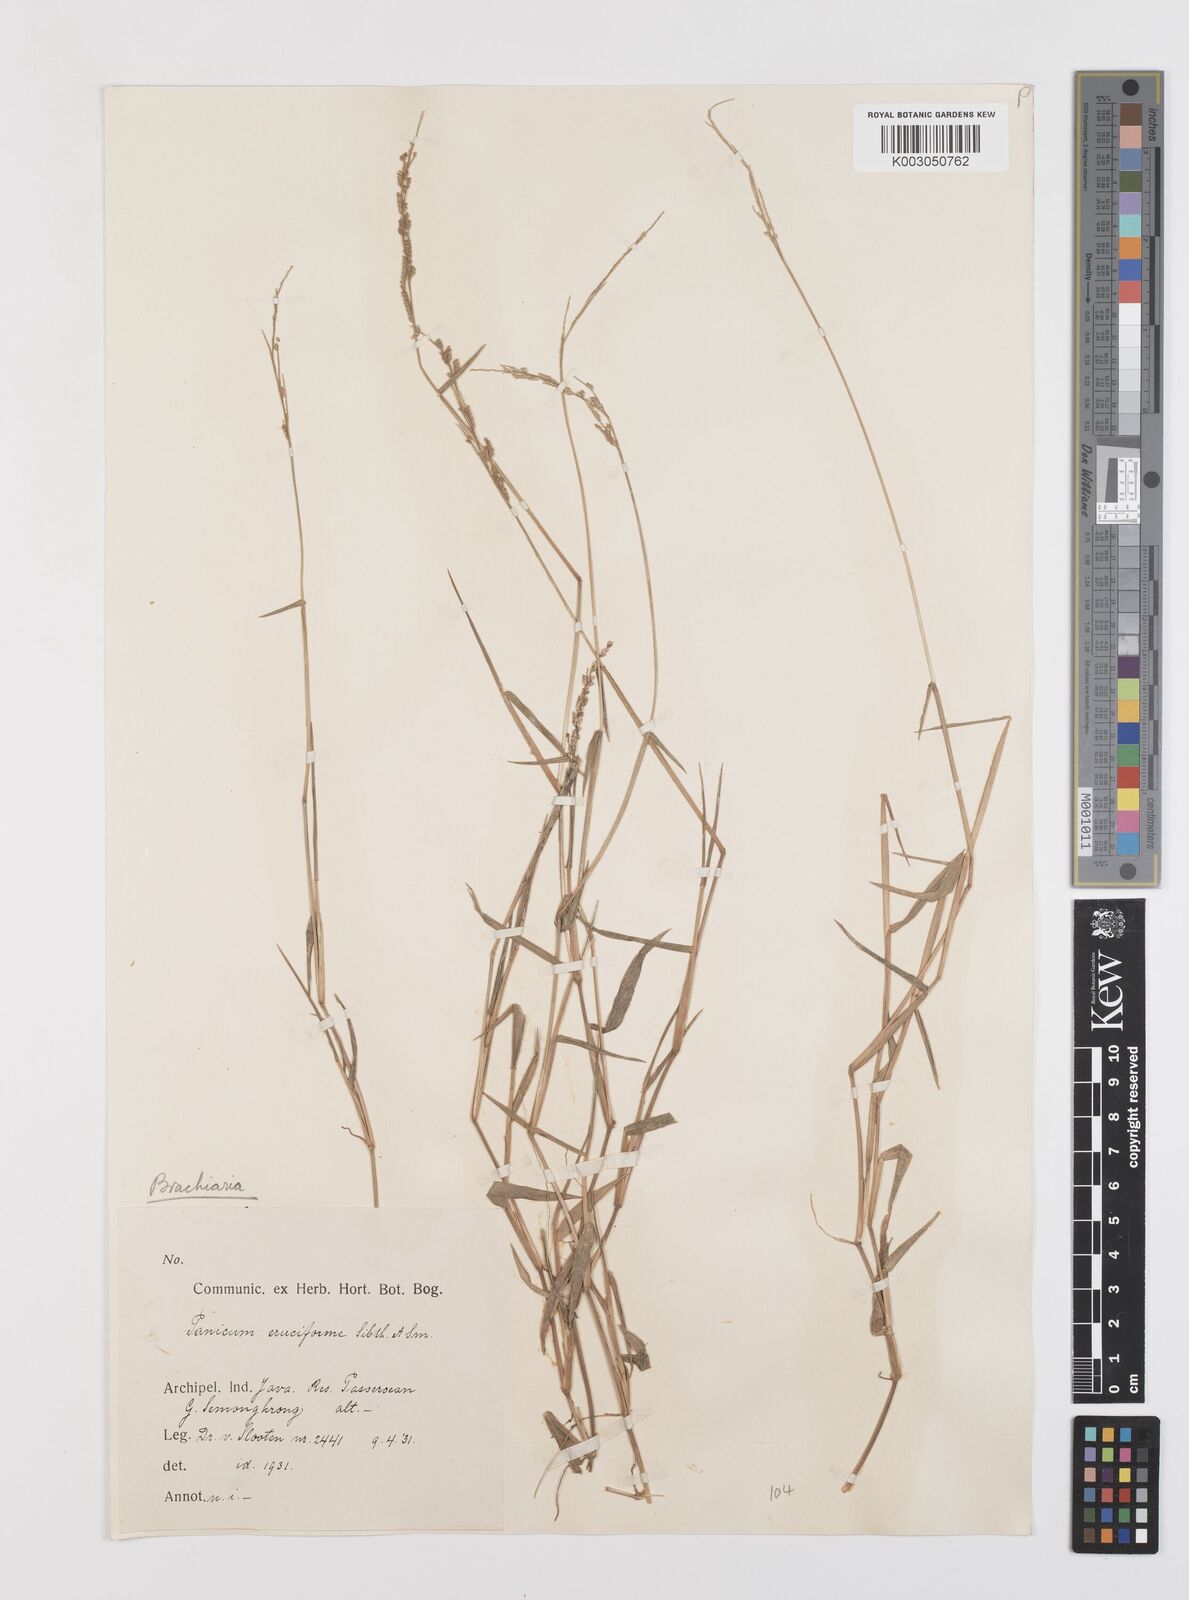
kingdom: Plantae
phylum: Tracheophyta
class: Liliopsida
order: Poales
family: Poaceae
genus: Moorochloa
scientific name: Moorochloa eruciformis
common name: Sweet signalgrass
